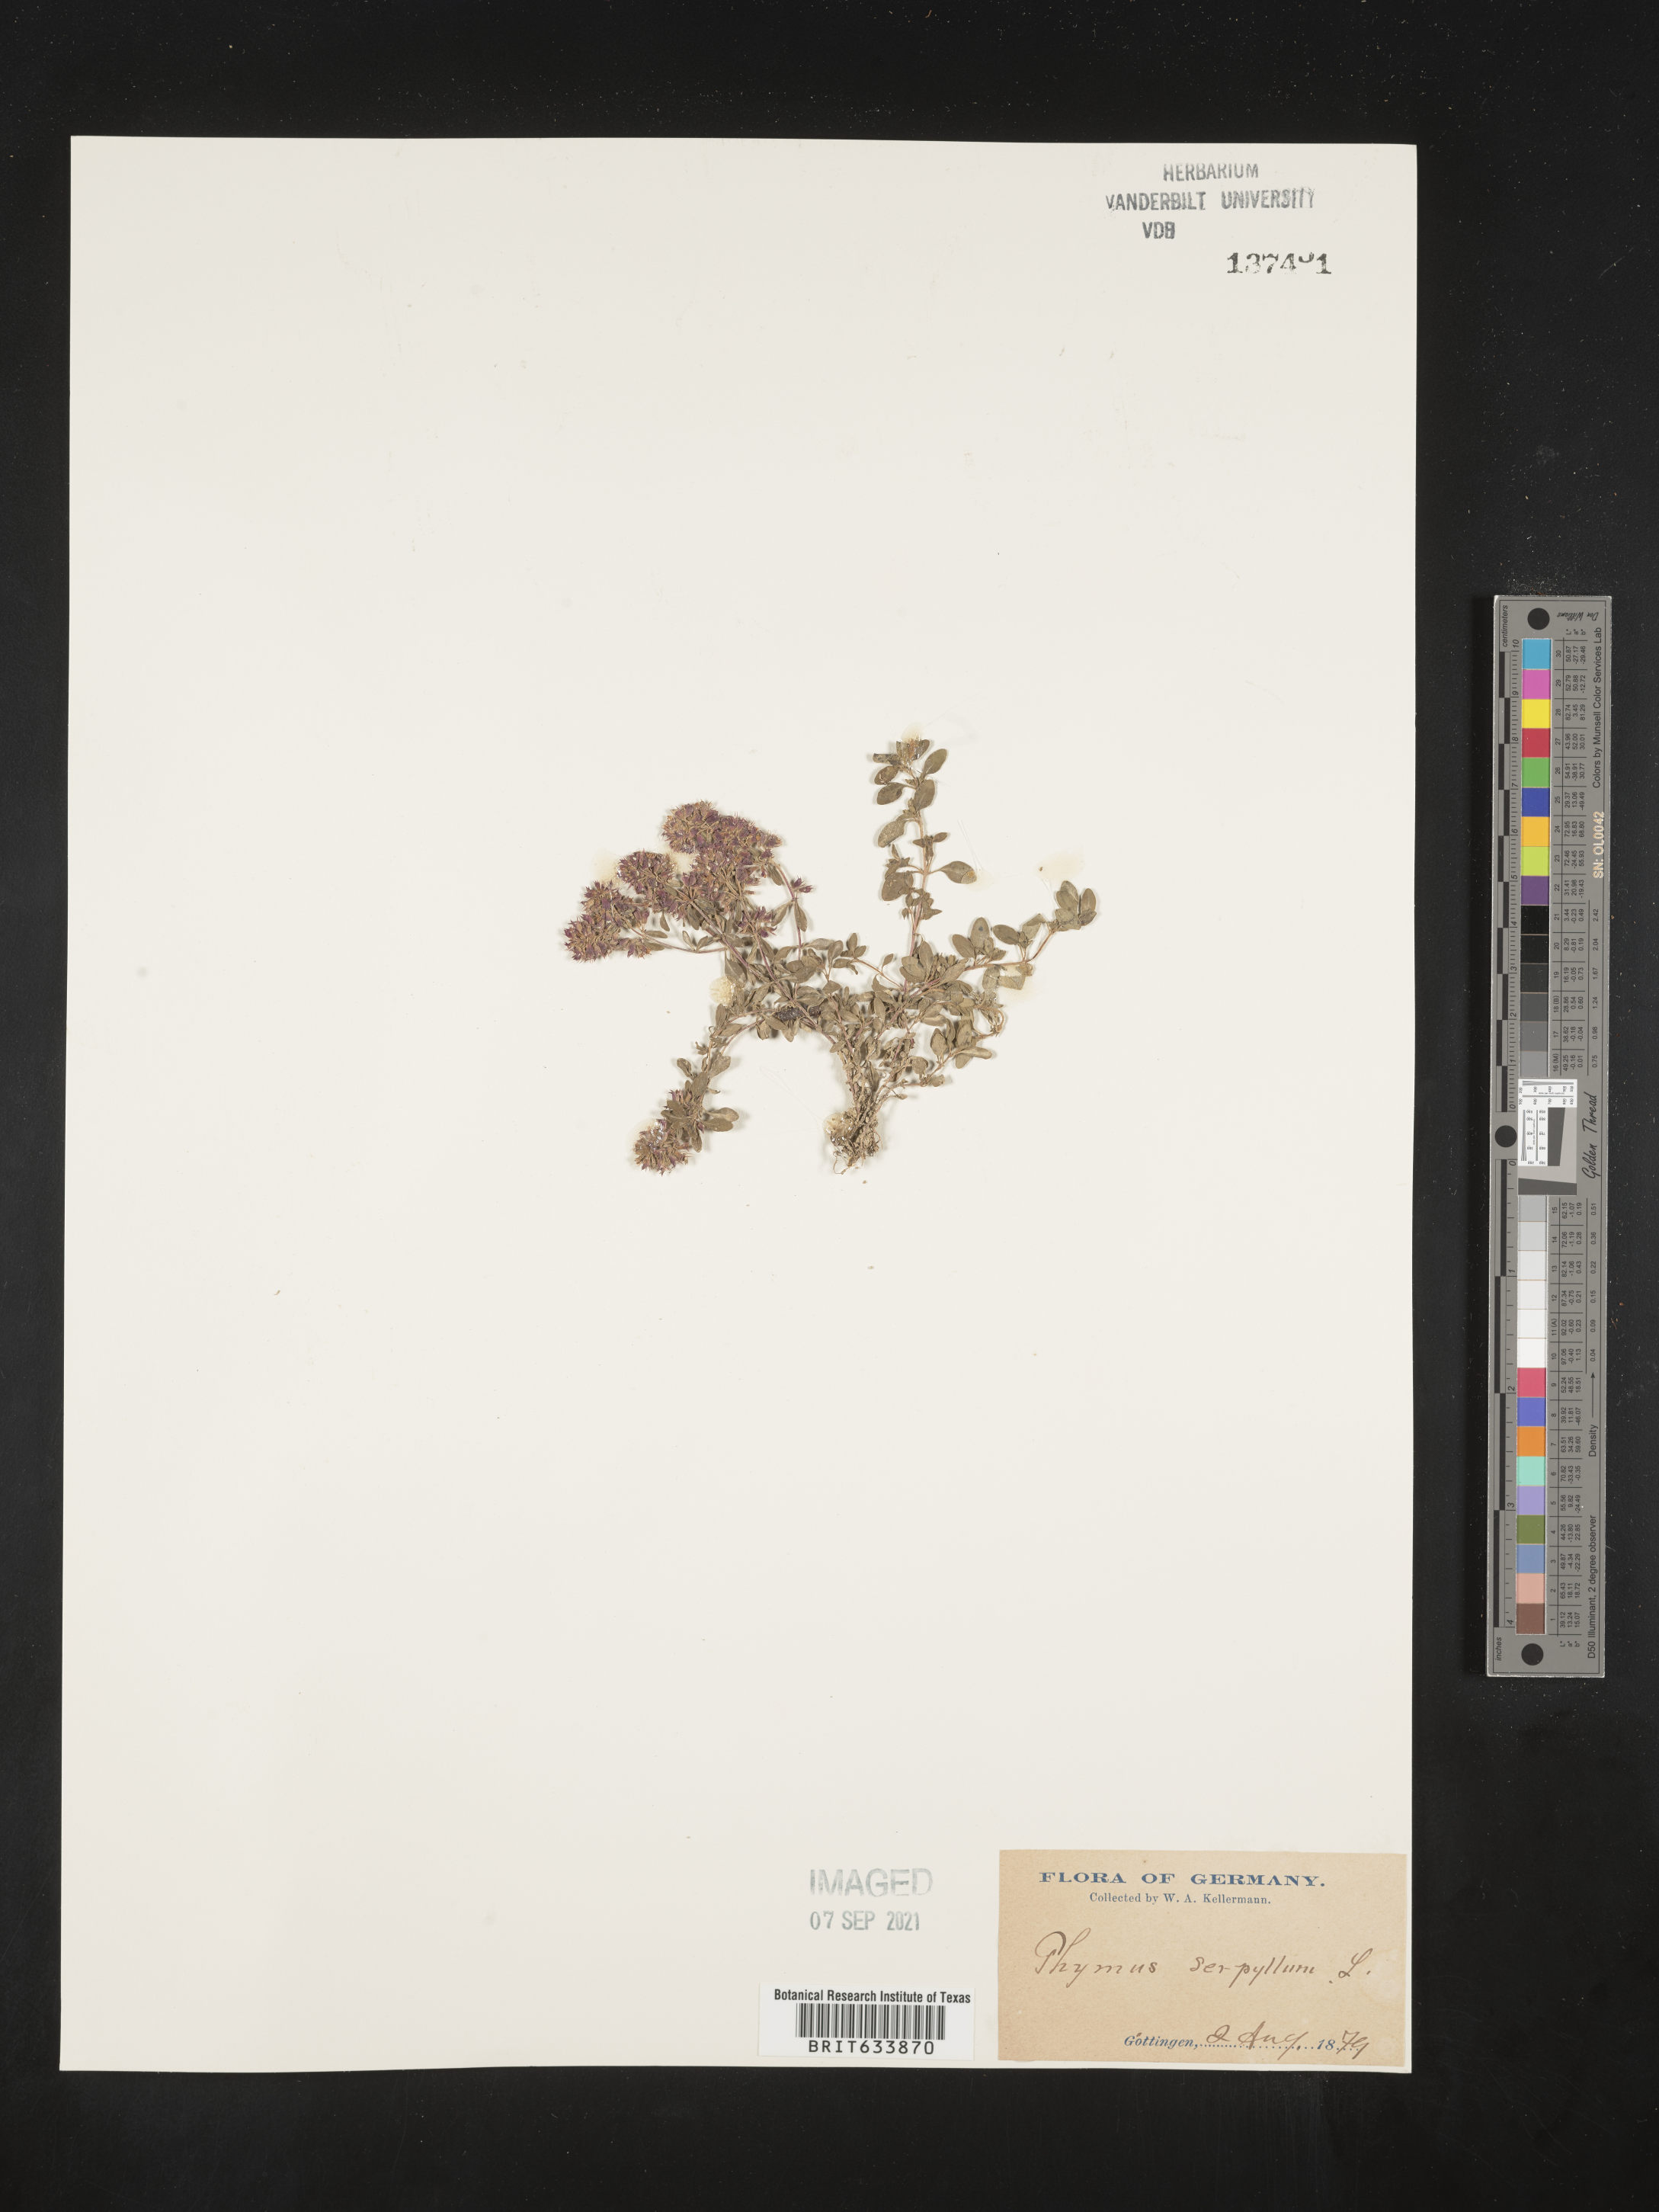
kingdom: Plantae
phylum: Tracheophyta
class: Magnoliopsida
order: Lamiales
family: Lamiaceae
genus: Thymus
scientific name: Thymus
